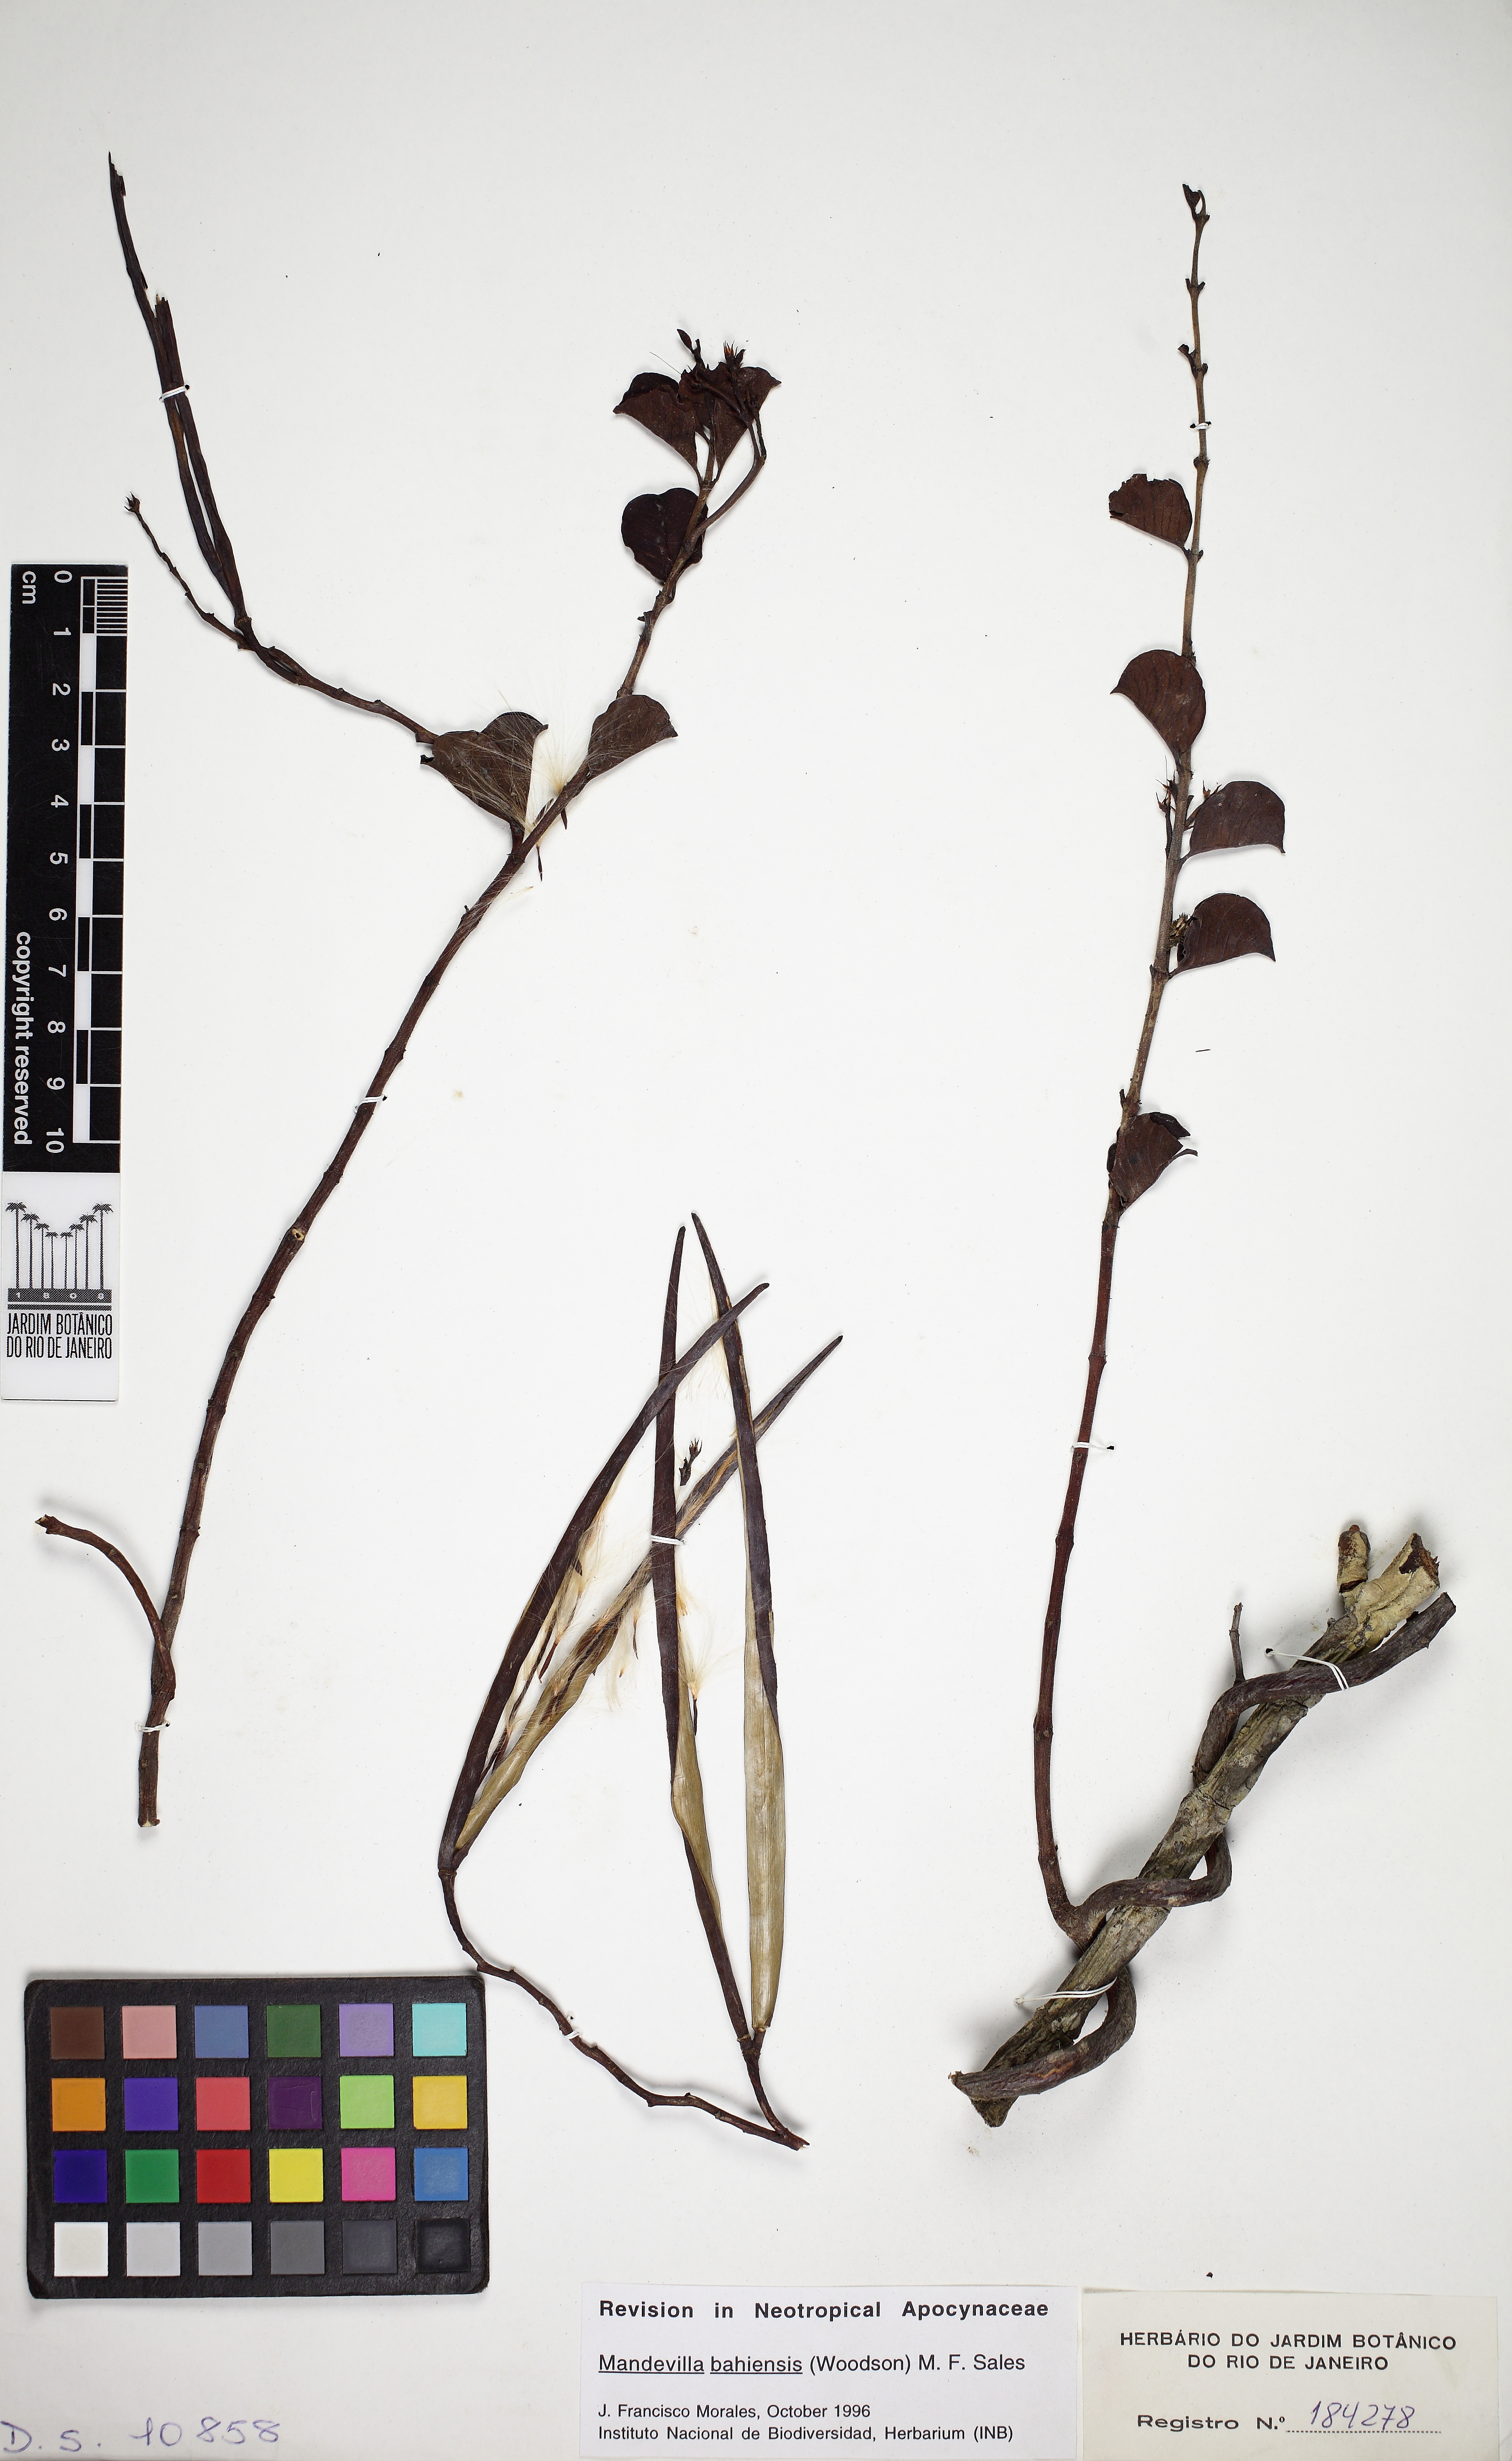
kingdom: Plantae
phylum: Tracheophyta
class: Magnoliopsida
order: Gentianales
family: Apocynaceae
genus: Mandevilla
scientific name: Mandevilla bahiensis
